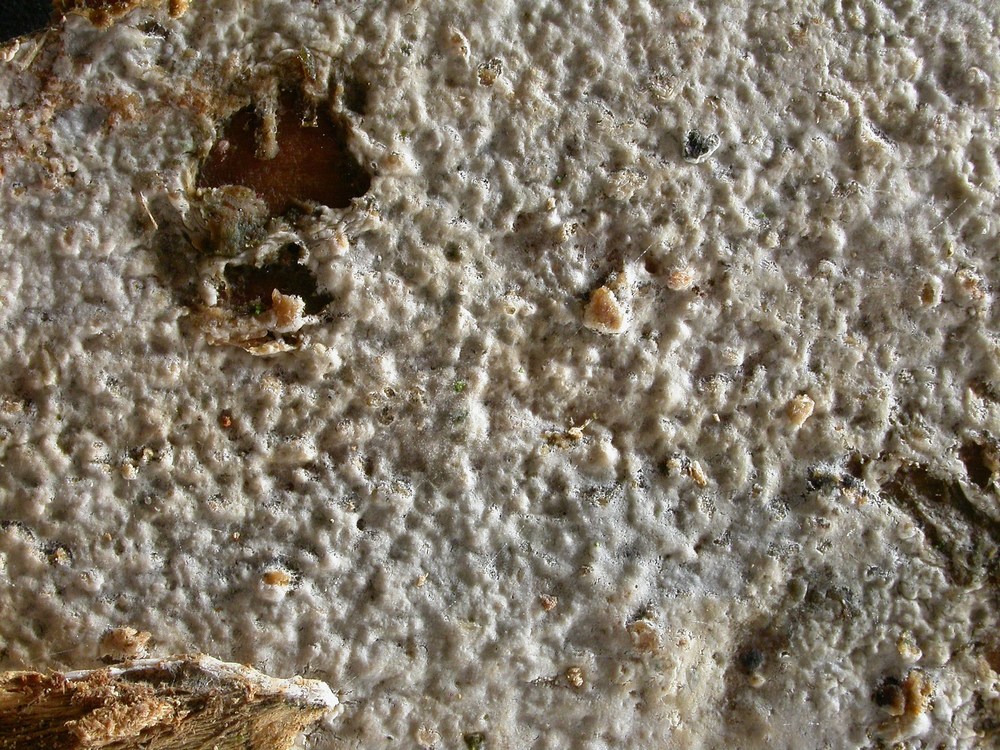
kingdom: Fungi
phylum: Basidiomycota
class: Agaricomycetes
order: Hymenochaetales
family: Hyphodontiaceae
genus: Hyphodontia
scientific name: Hyphodontia alutaria
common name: flaskerenser-nålehinde
